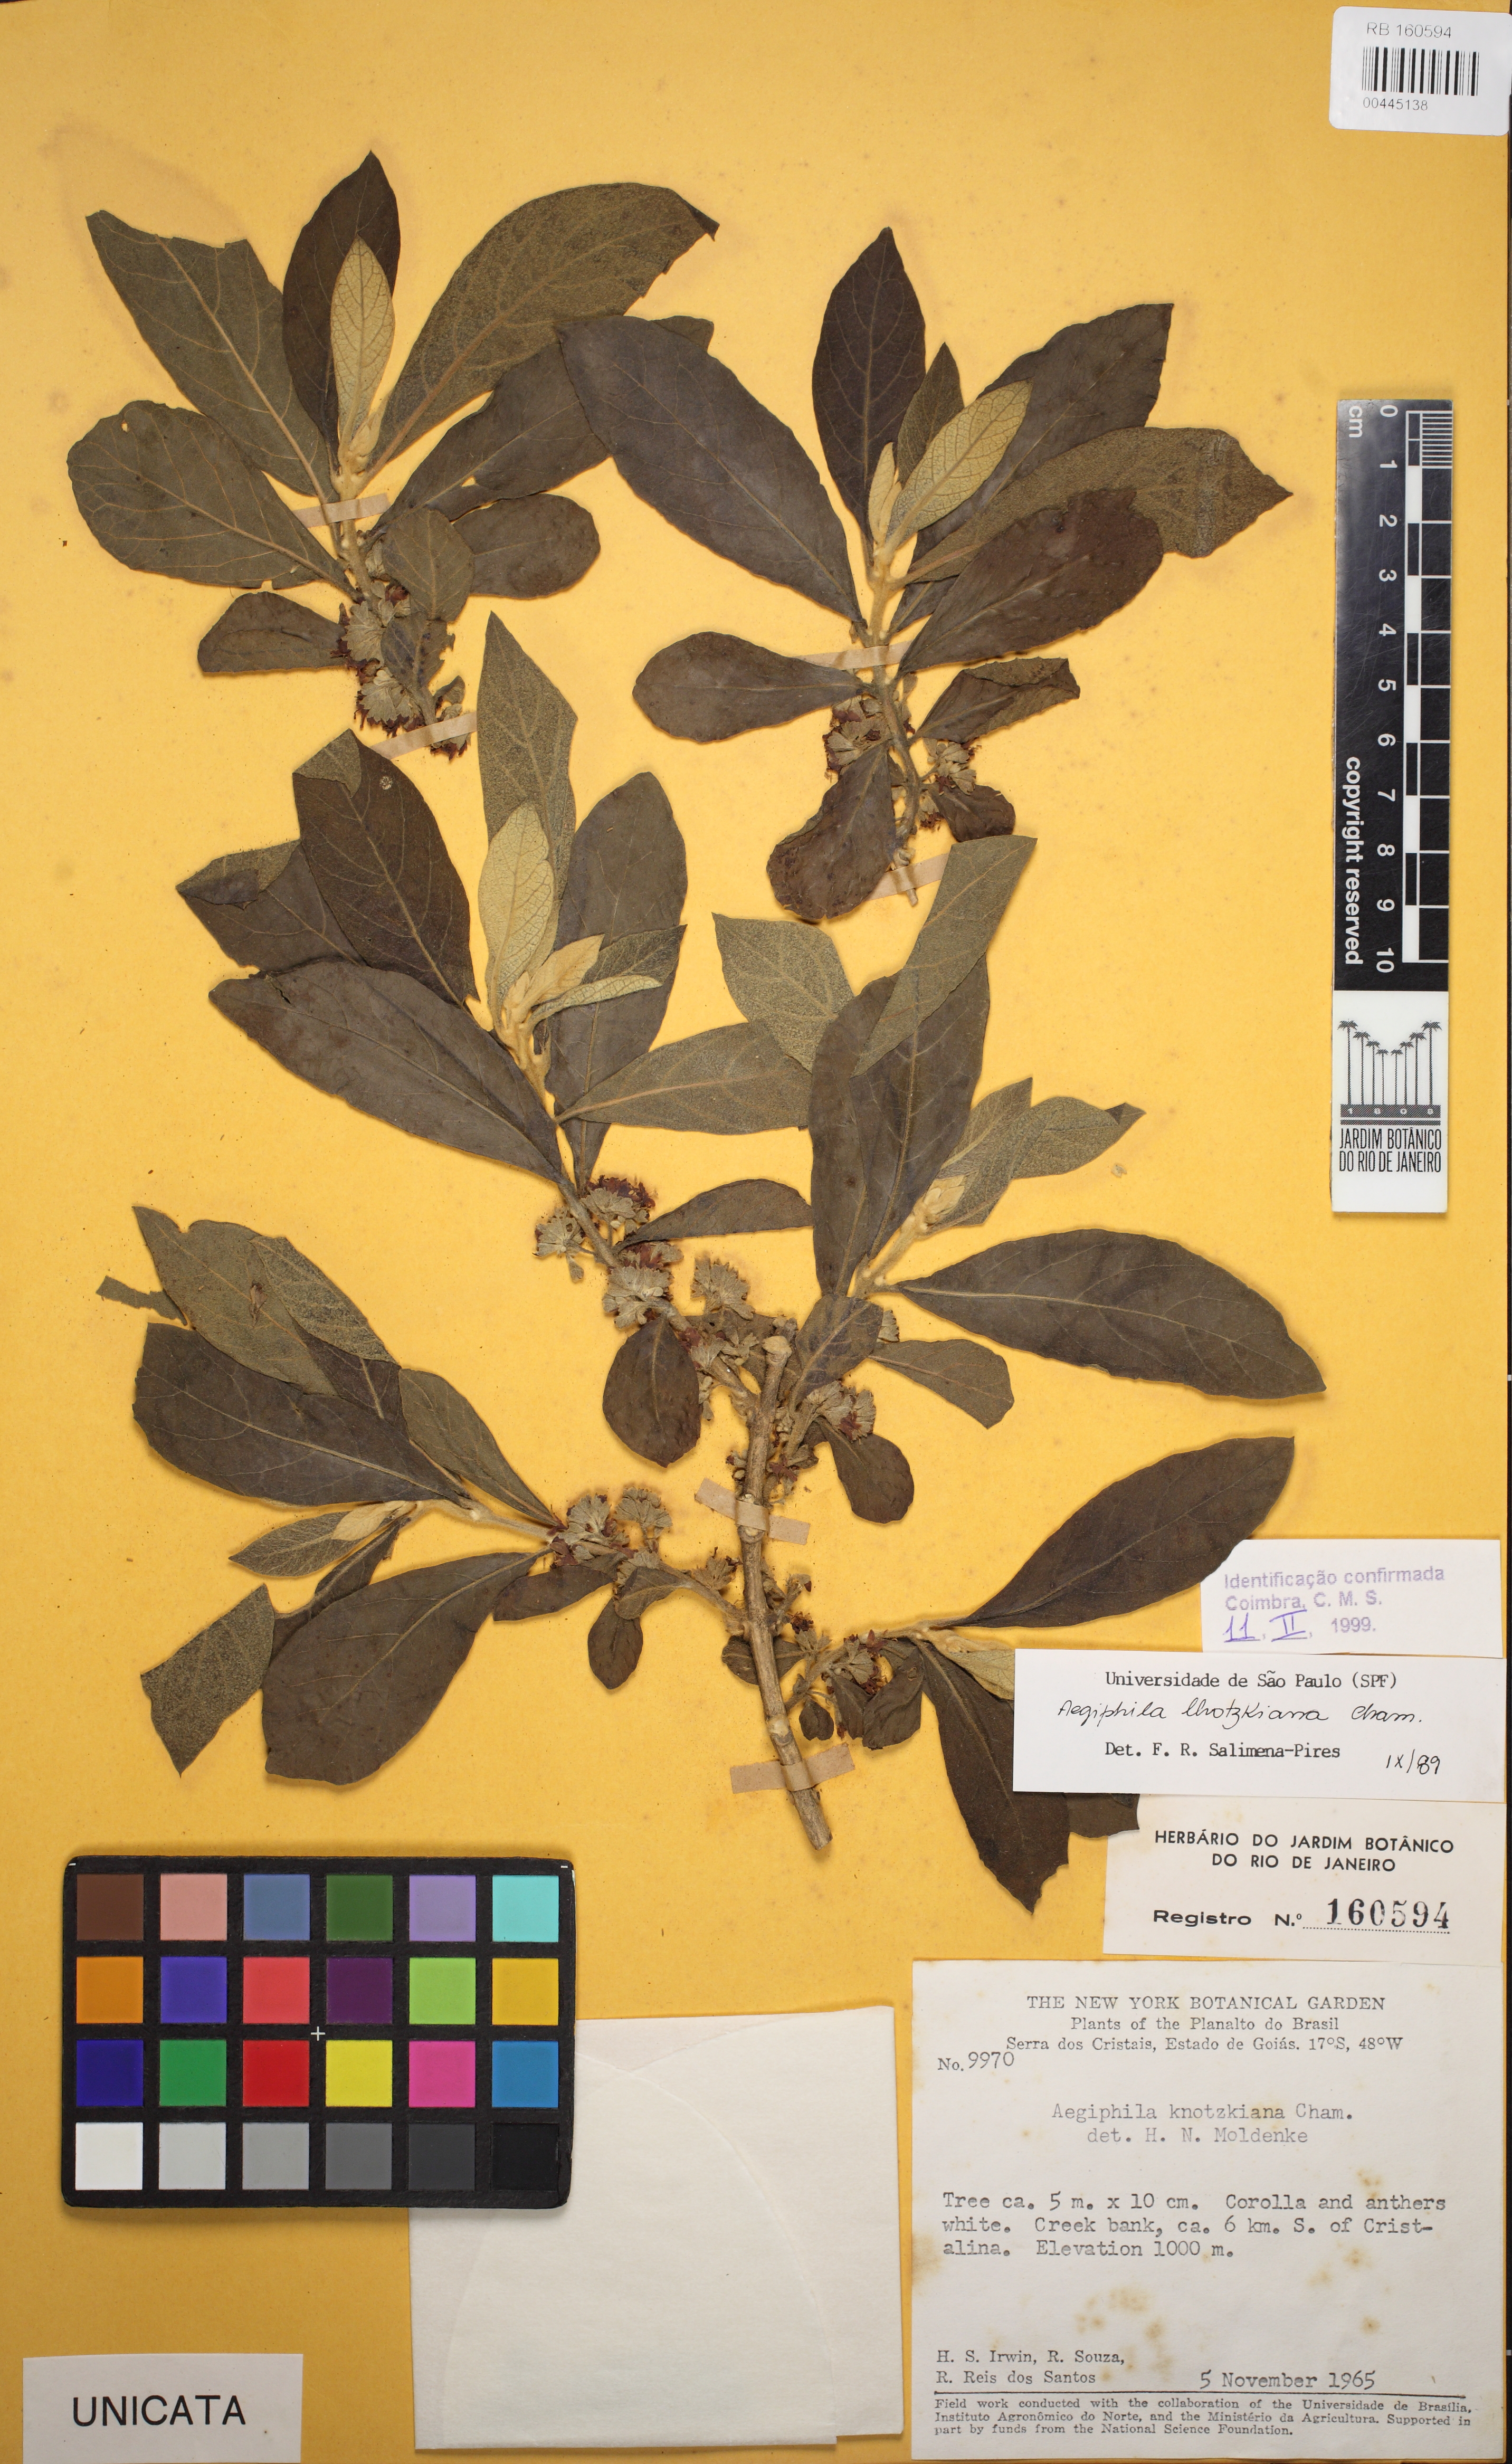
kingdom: Plantae
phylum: Tracheophyta
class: Magnoliopsida
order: Lamiales
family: Lamiaceae
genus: Aegiphila
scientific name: Aegiphila lhotskiana
